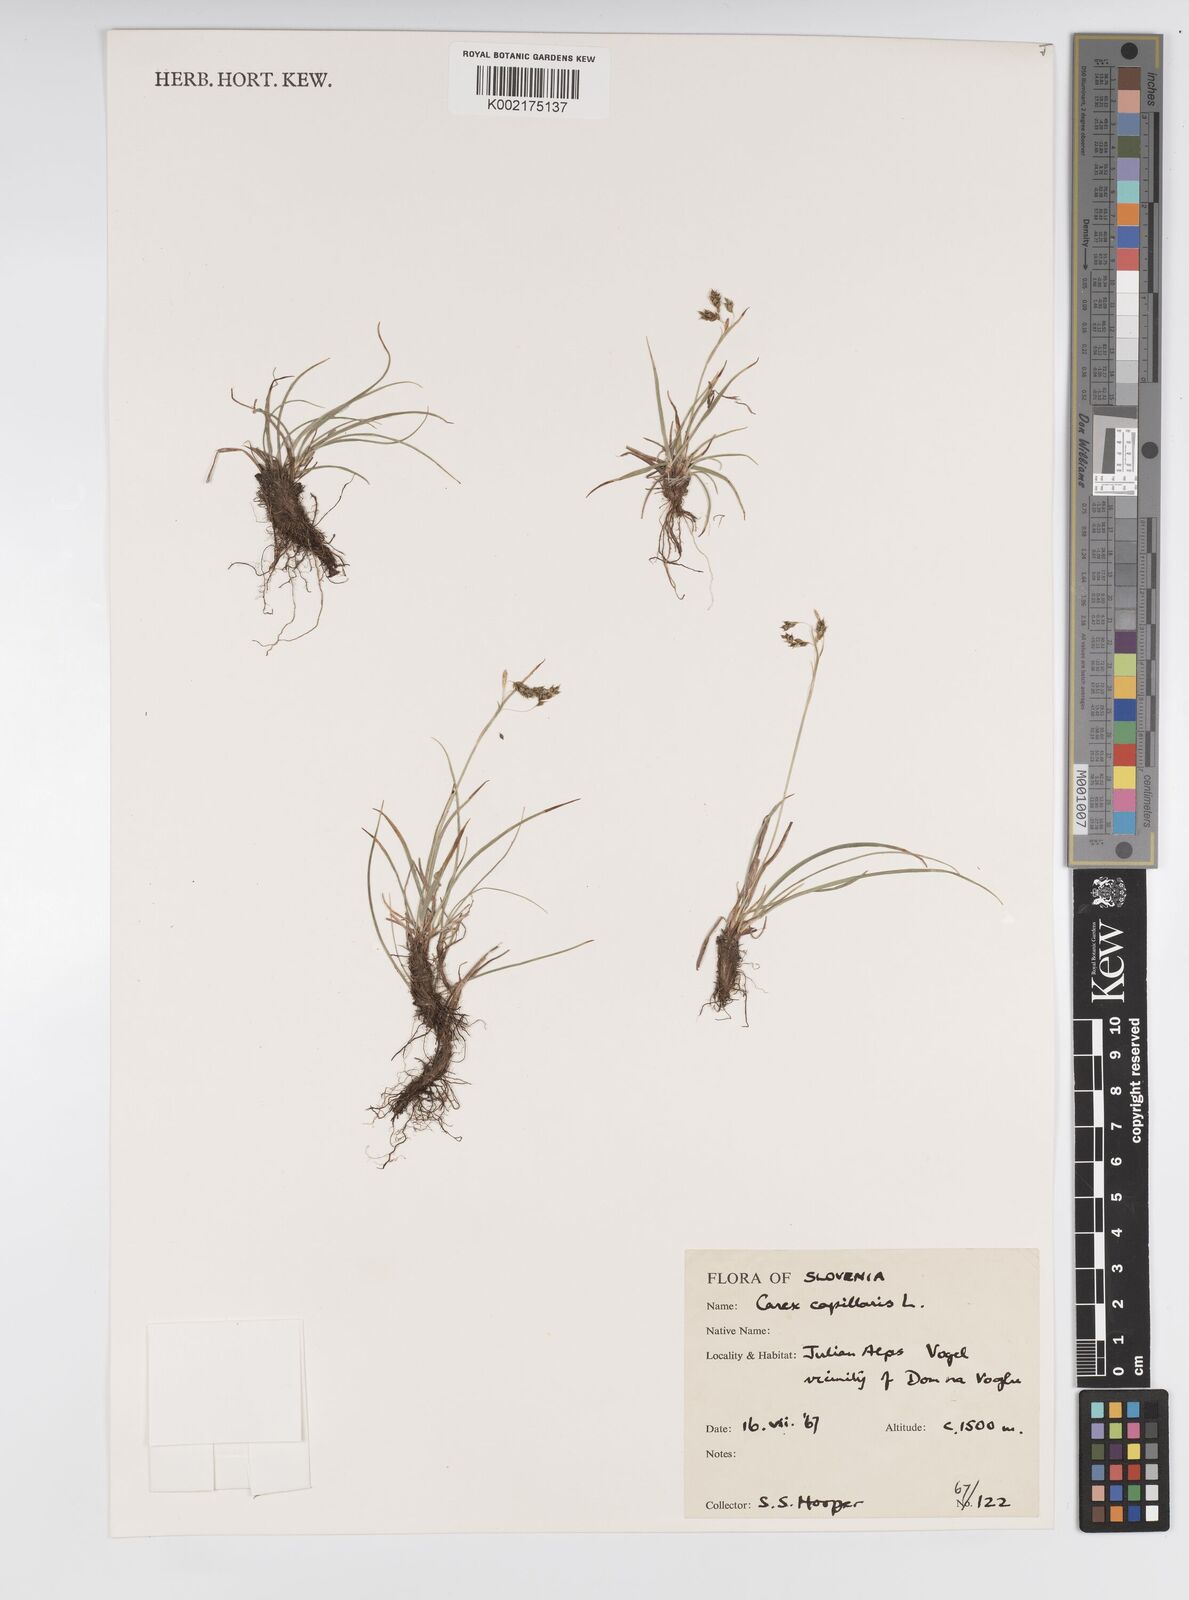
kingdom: Plantae
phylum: Tracheophyta
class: Liliopsida
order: Poales
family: Cyperaceae
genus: Carex
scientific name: Carex capillaris
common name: Hair sedge
